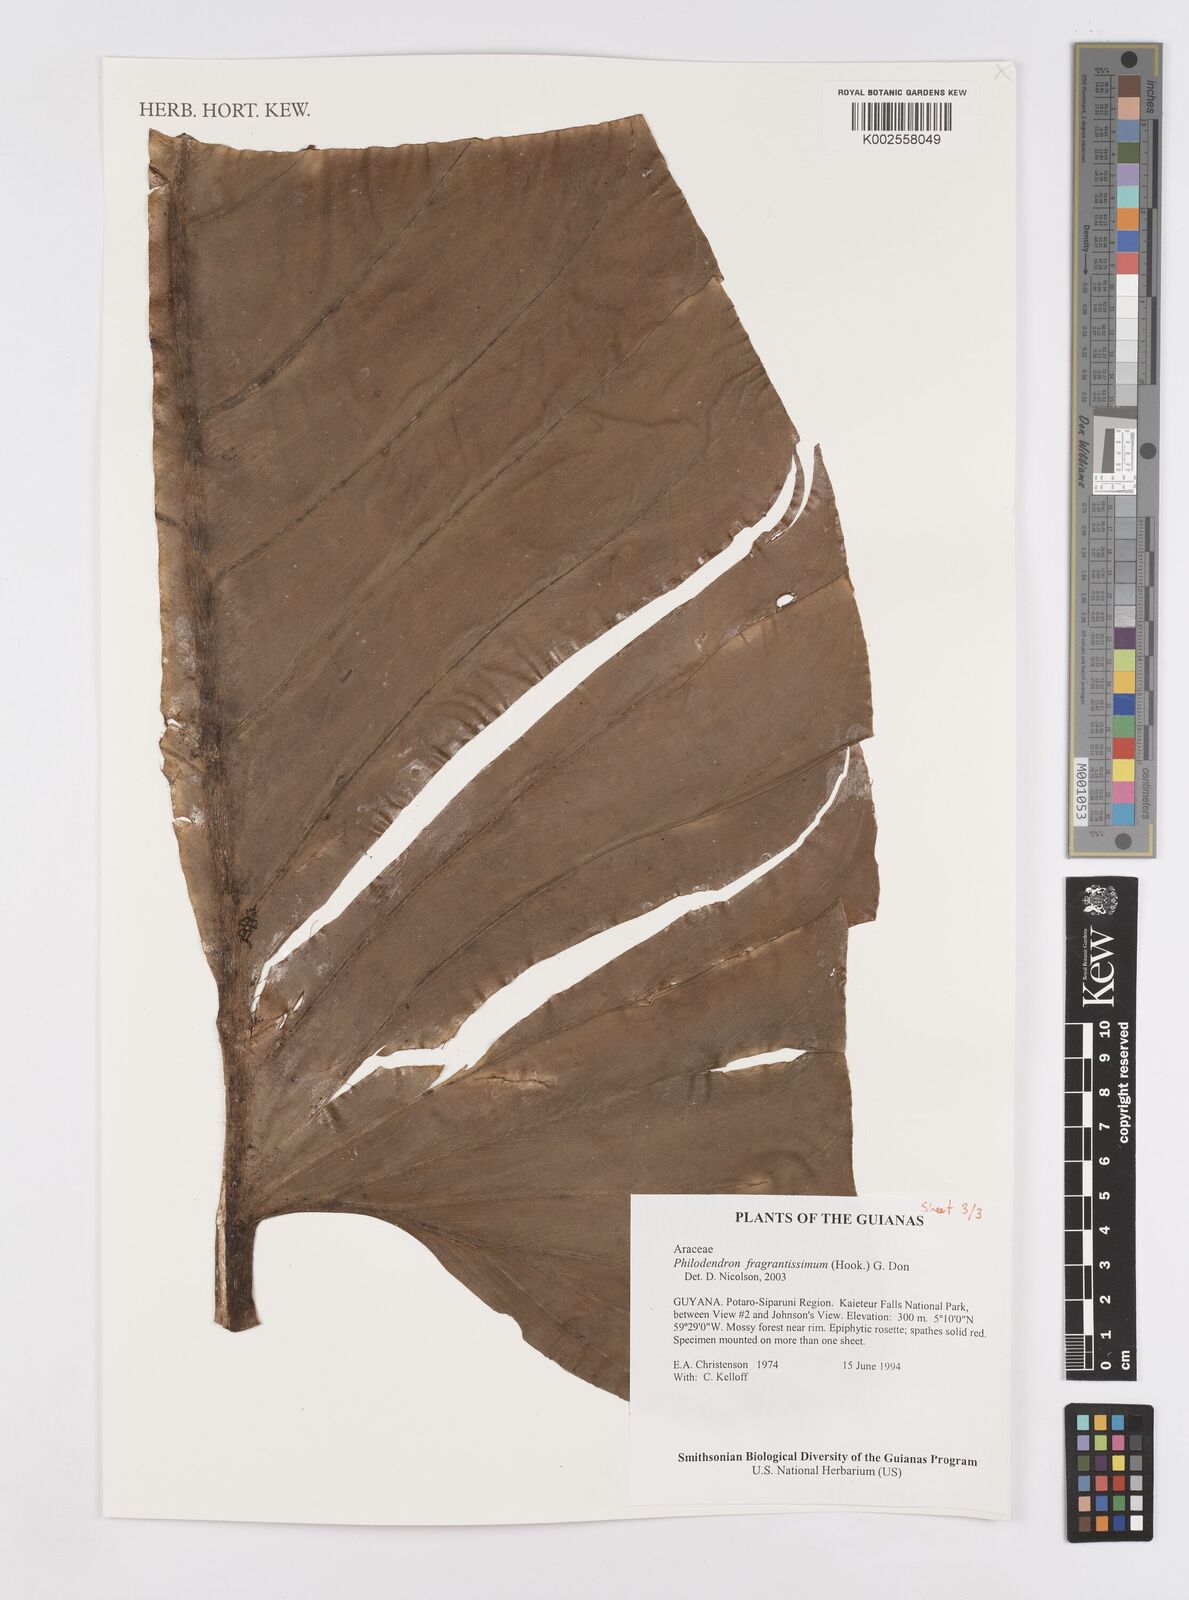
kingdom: Plantae
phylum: Tracheophyta
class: Liliopsida
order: Alismatales
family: Araceae
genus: Philodendron
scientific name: Philodendron fragrantissimum
